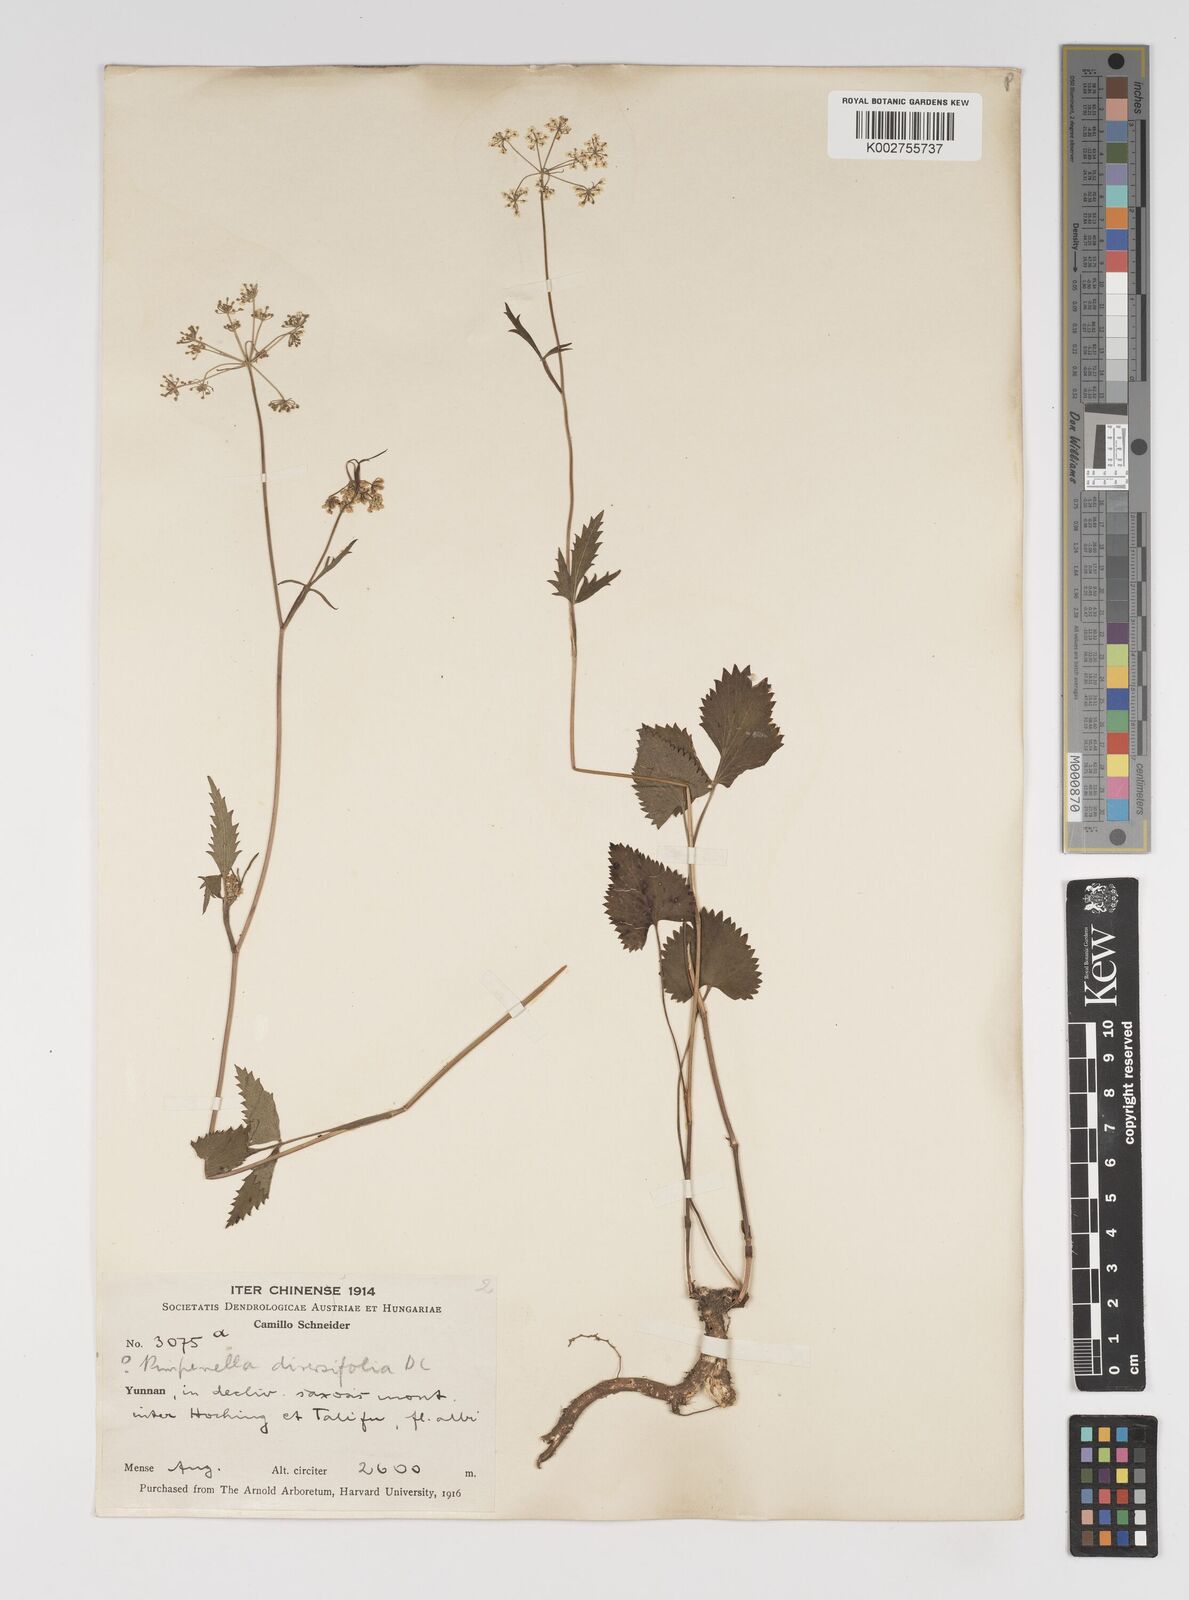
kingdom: Plantae
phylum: Tracheophyta
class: Magnoliopsida
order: Apiales
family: Apiaceae
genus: Pimpinella
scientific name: Pimpinella diversifolia
